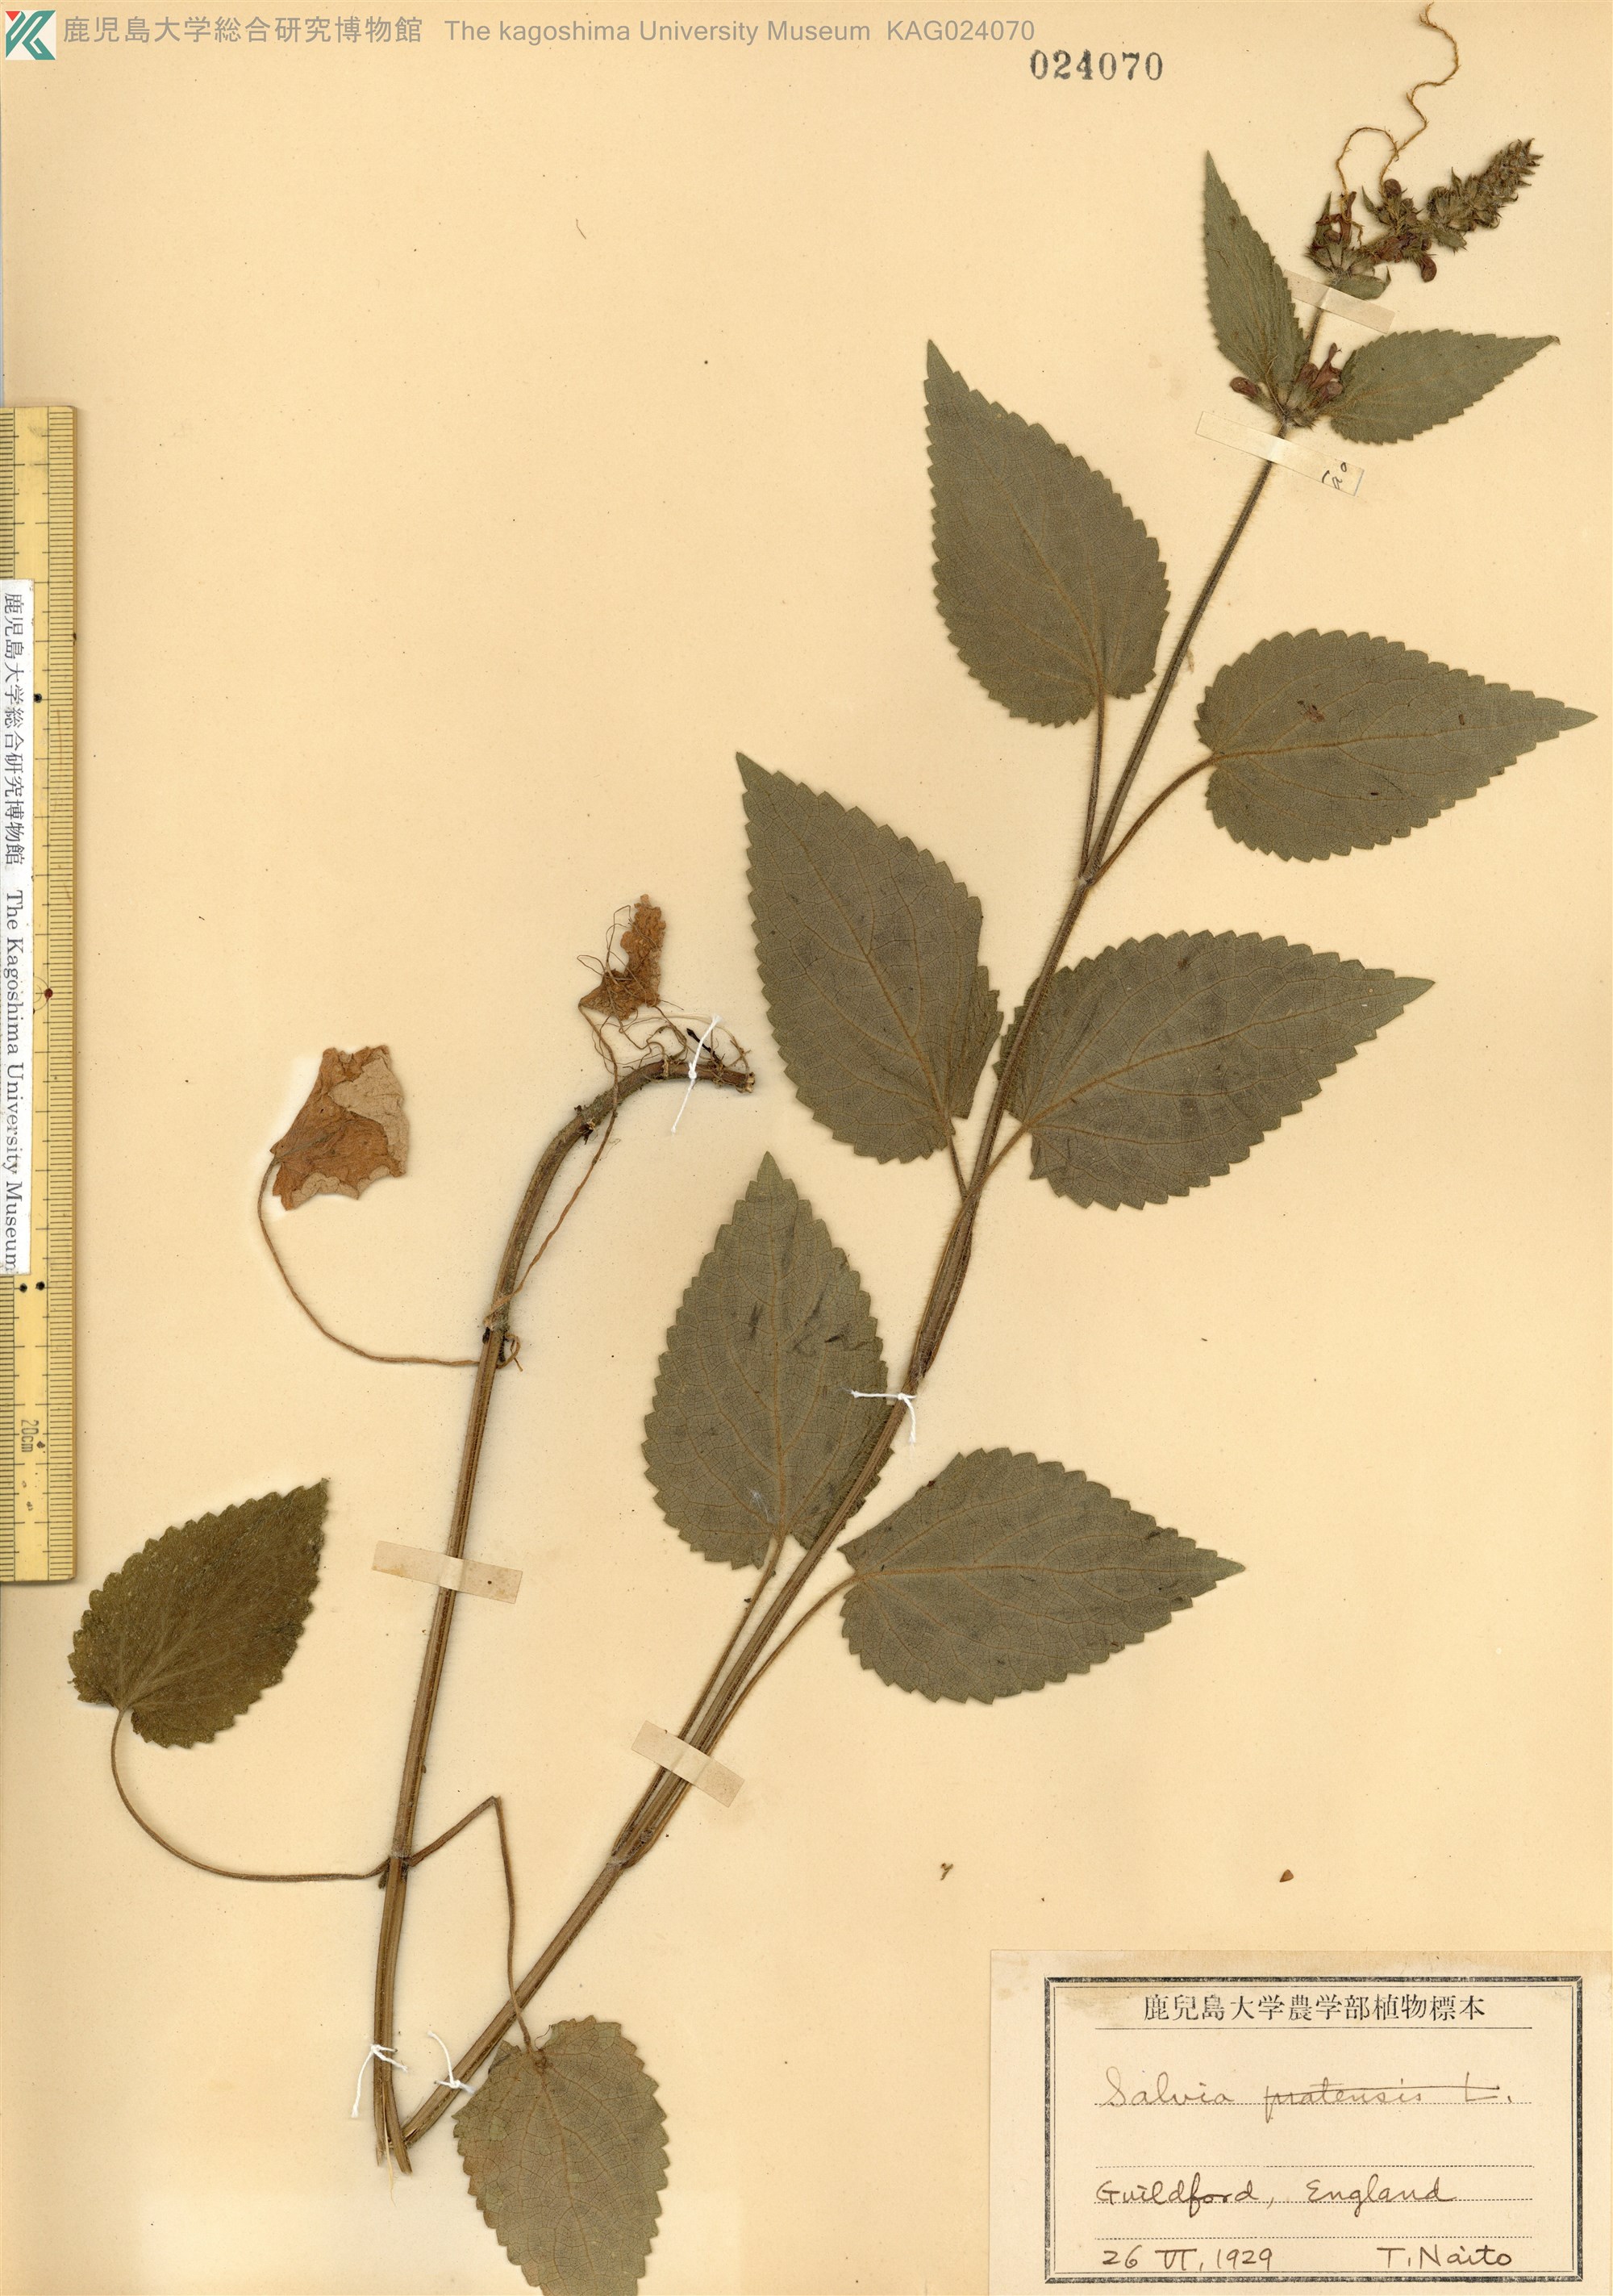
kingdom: Plantae
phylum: Tracheophyta
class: Magnoliopsida
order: Lamiales
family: Lamiaceae
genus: Salvia
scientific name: Salvia sylvestris
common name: Woodland sage
